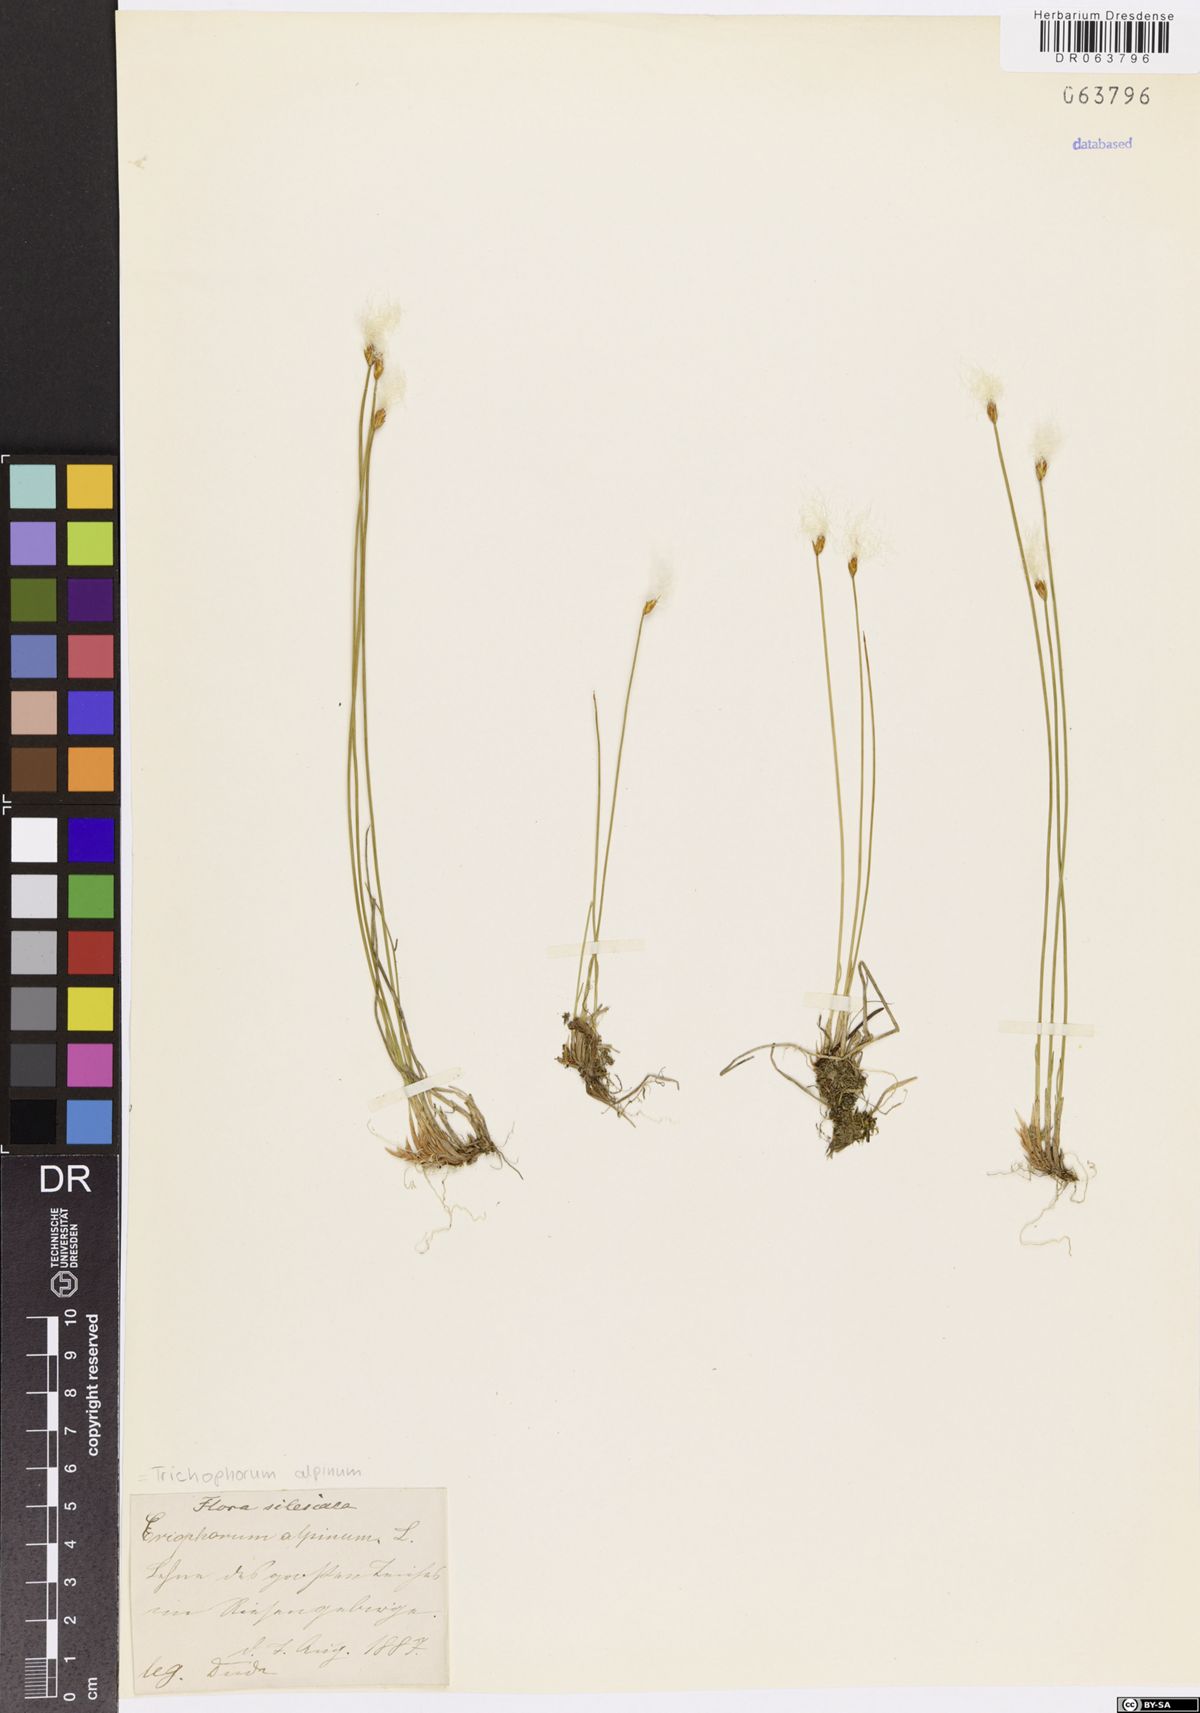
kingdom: Plantae
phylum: Tracheophyta
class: Liliopsida
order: Poales
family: Cyperaceae
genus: Trichophorum
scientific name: Trichophorum alpinum
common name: Alpine bulrush
